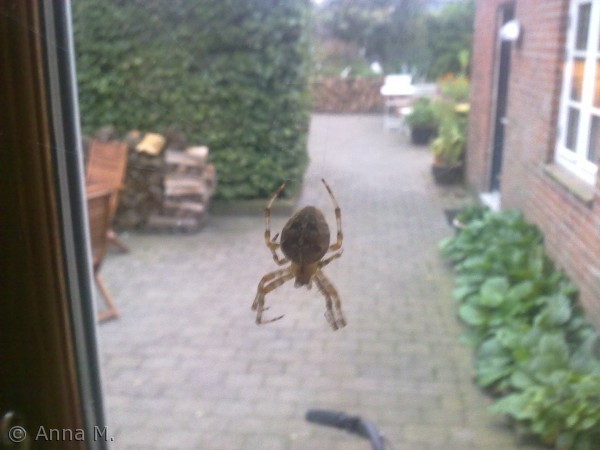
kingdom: Animalia
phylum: Arthropoda
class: Arachnida
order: Araneae
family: Araneidae
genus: Araneus
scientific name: Araneus diadematus
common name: Korsedderkop
